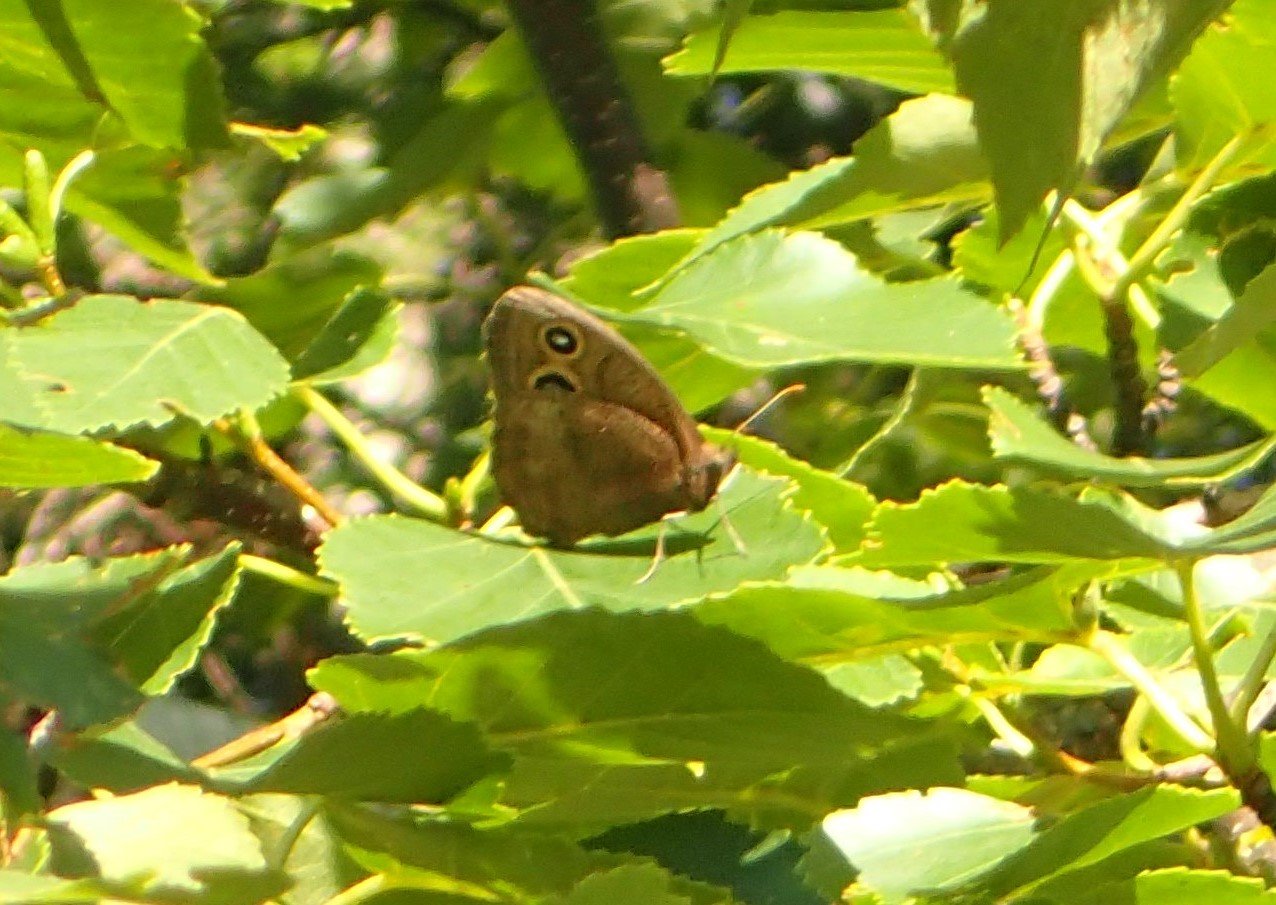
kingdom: Animalia
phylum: Arthropoda
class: Insecta
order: Lepidoptera
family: Nymphalidae
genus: Cercyonis
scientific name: Cercyonis pegala
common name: Common Wood-Nymph
